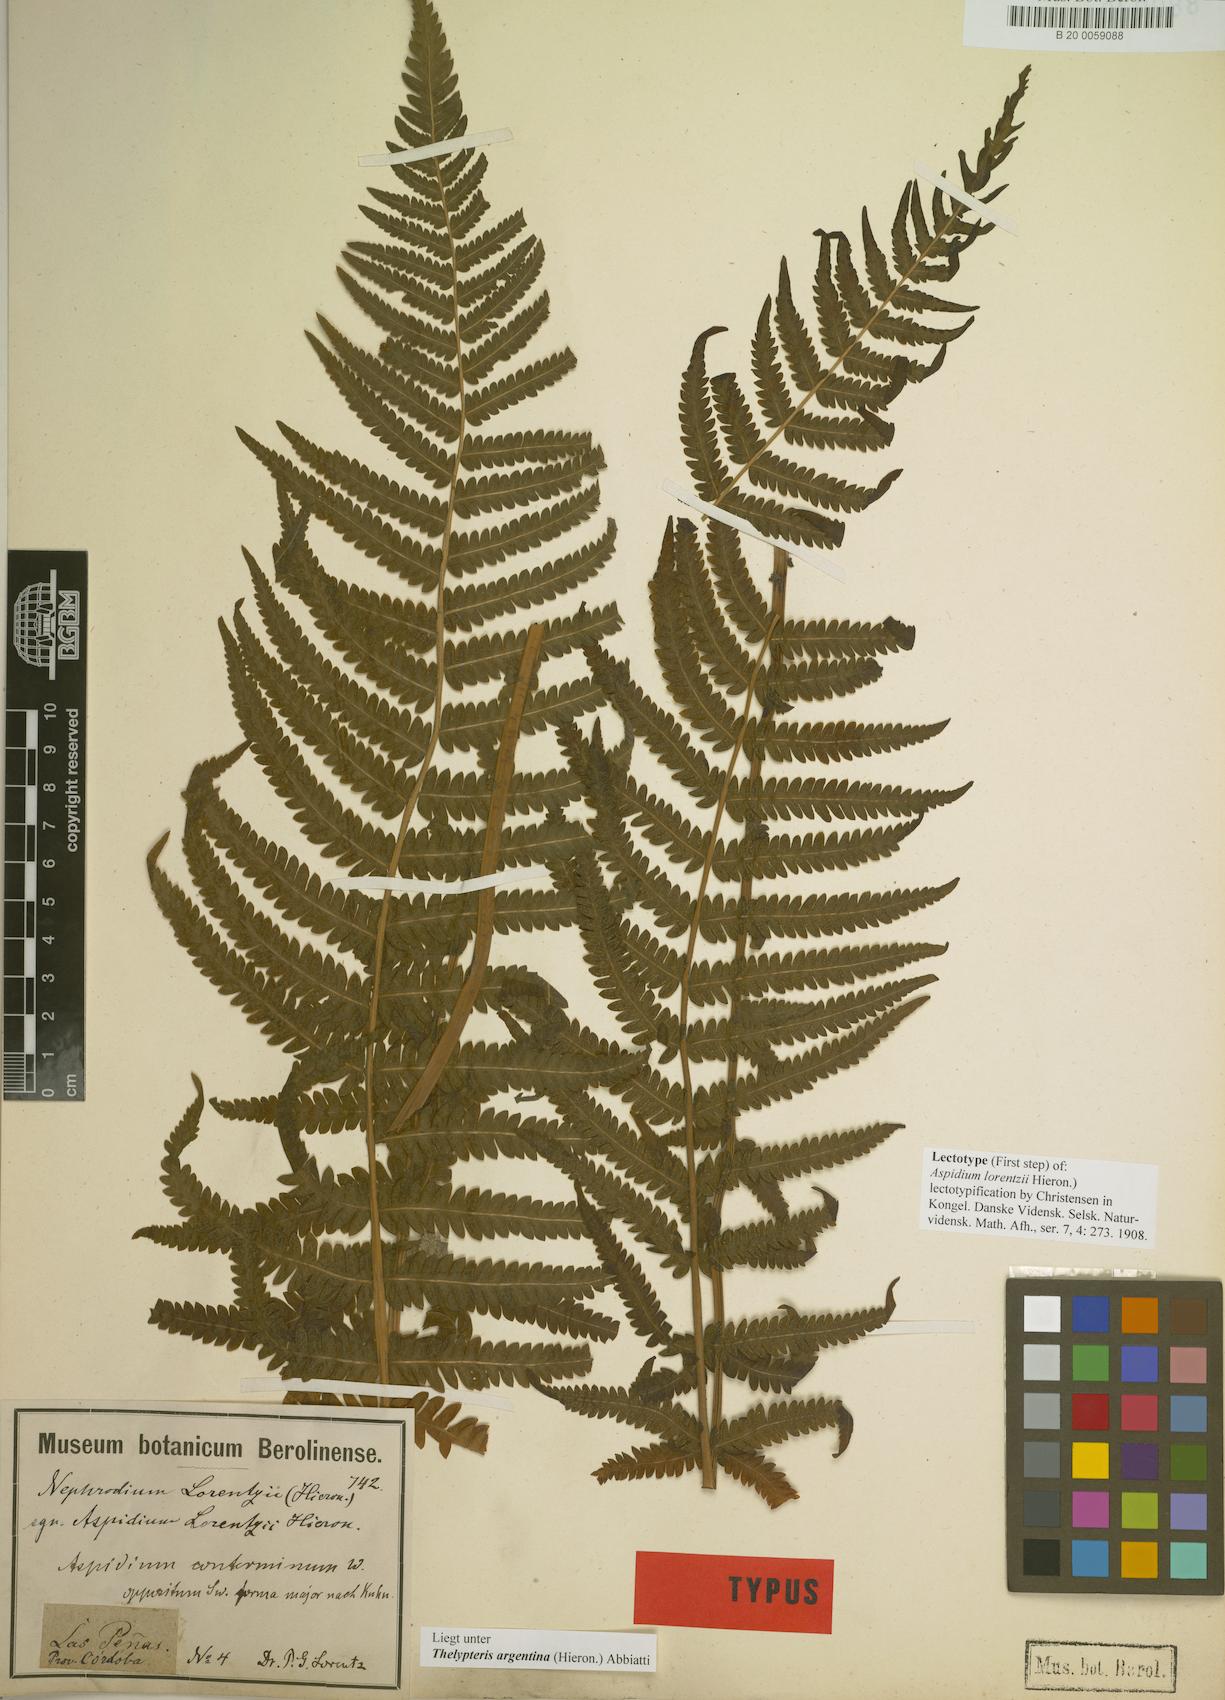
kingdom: Plantae
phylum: Tracheophyta
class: Polypodiopsida
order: Polypodiales
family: Thelypteridaceae
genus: Amauropelta
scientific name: Amauropelta argentina
